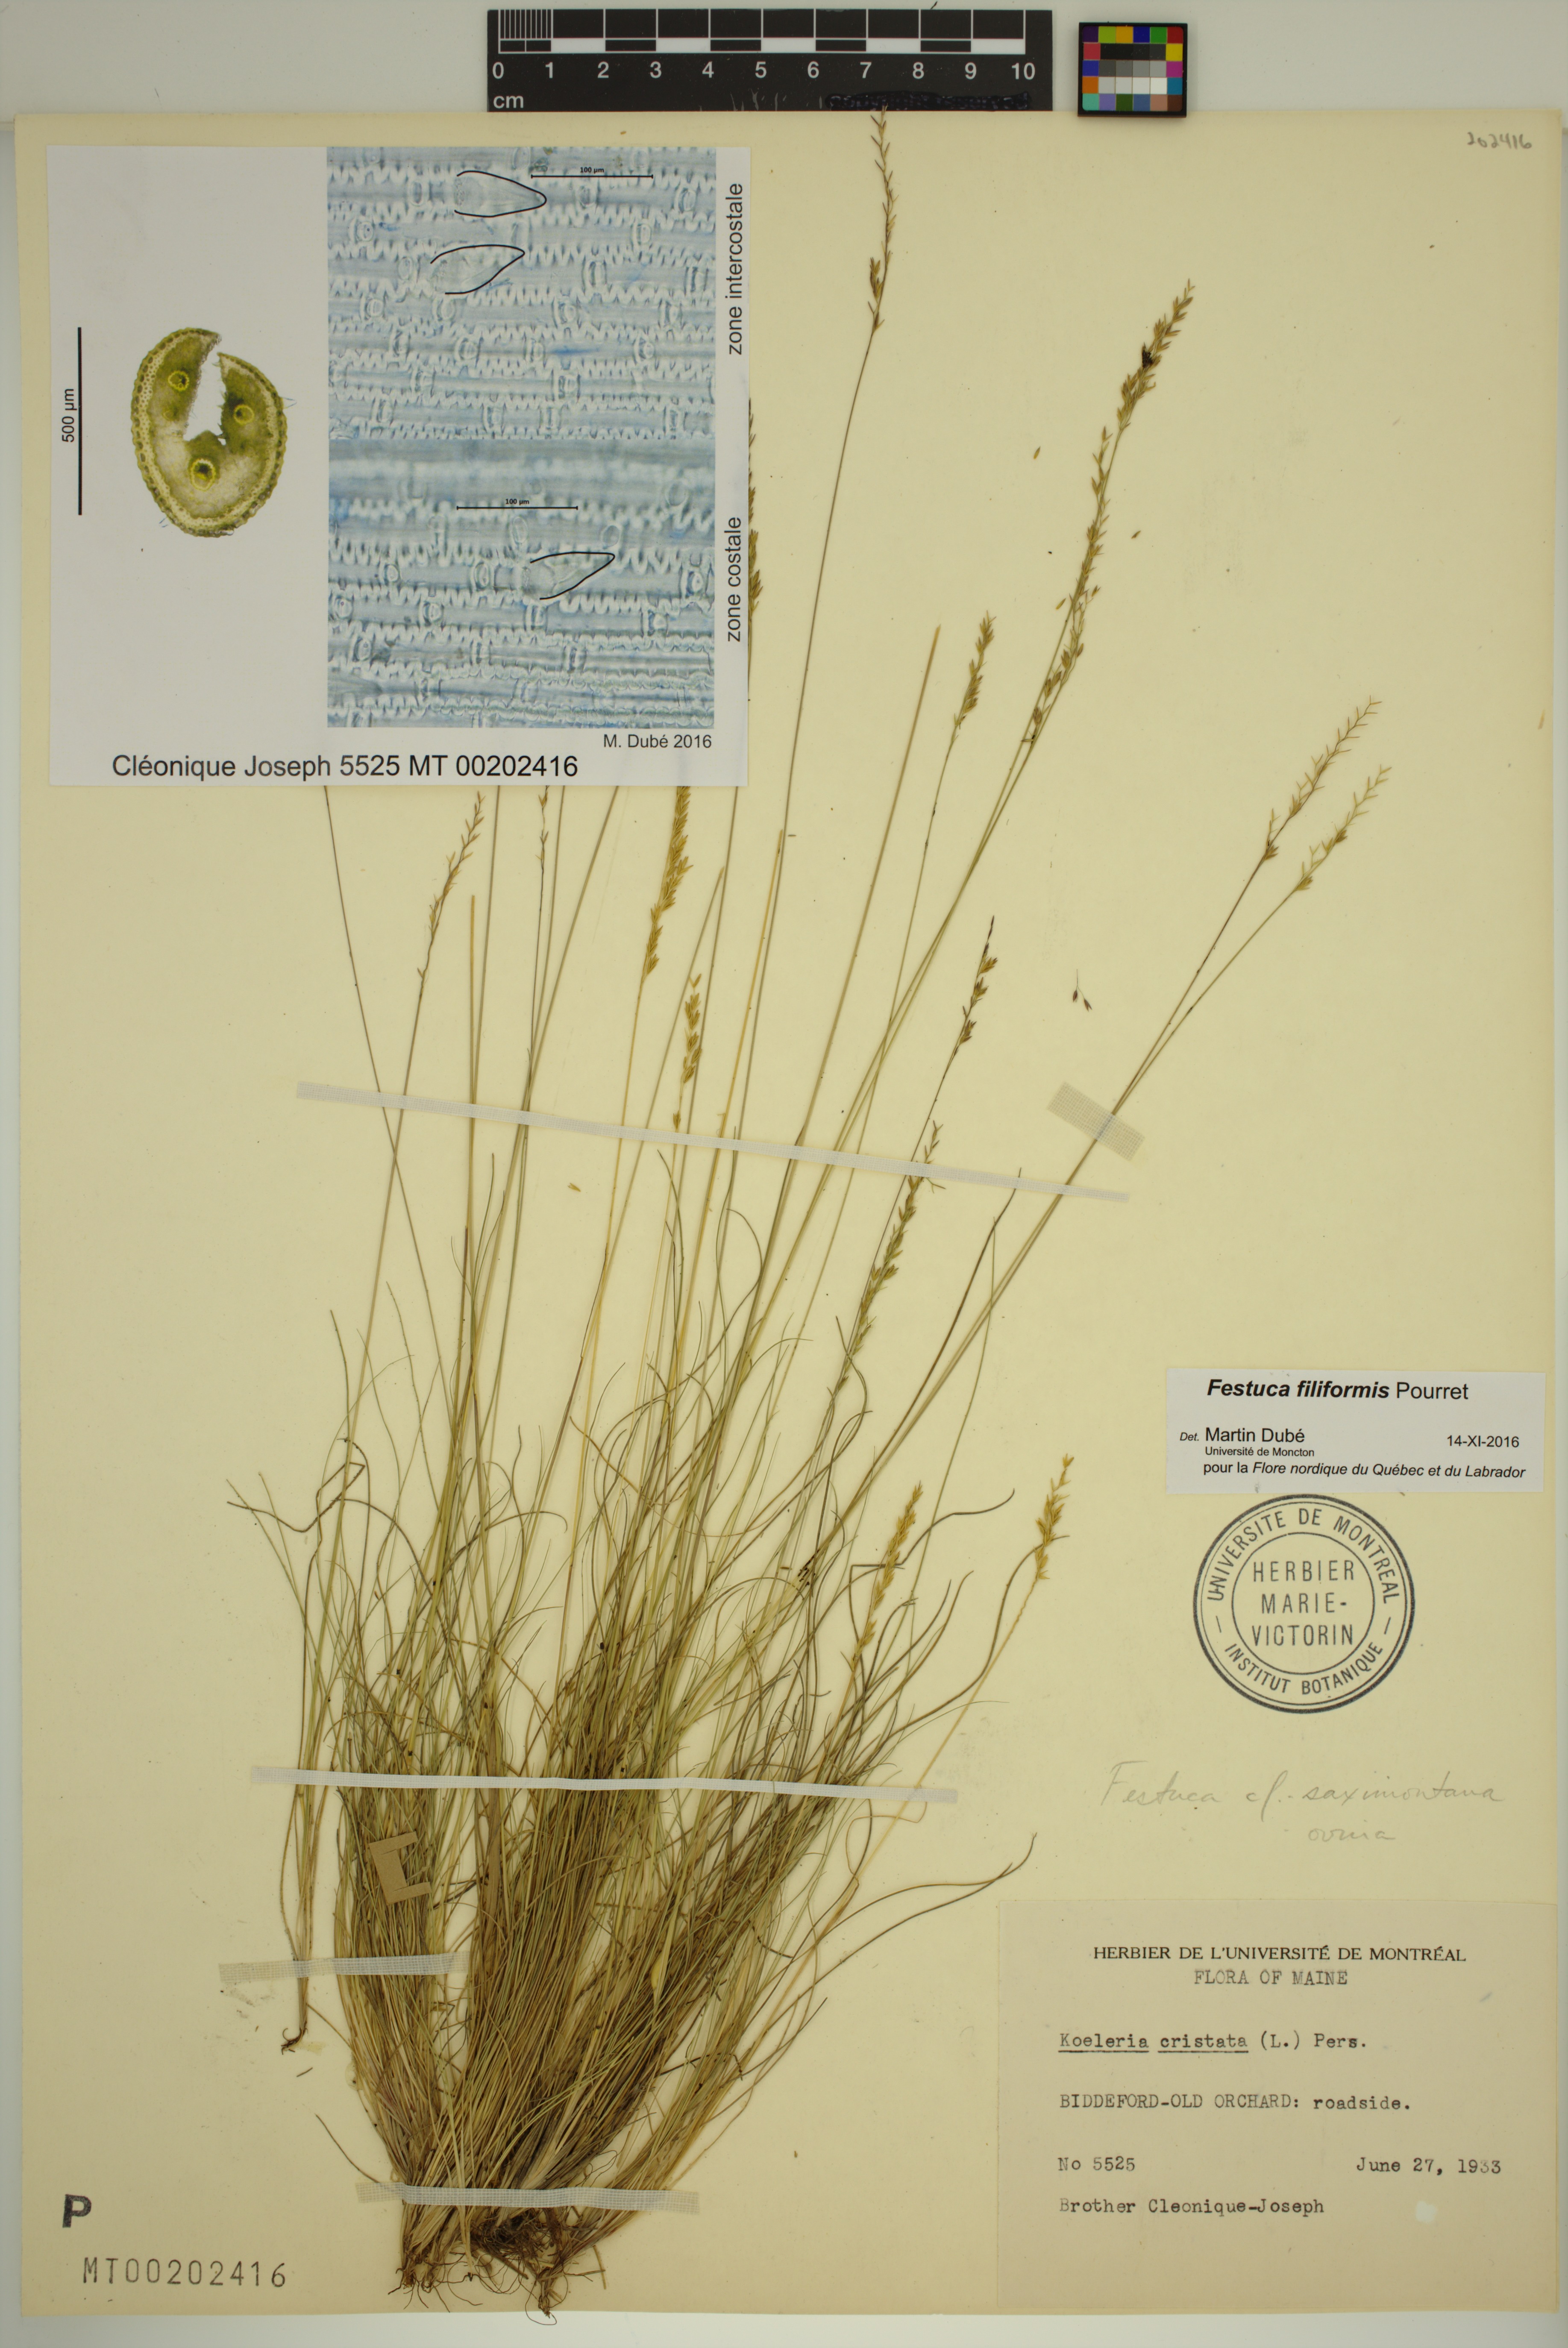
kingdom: Plantae
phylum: Tracheophyta
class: Liliopsida
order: Poales
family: Poaceae
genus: Festuca
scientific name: Festuca filiformis
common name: Fine-leaved sheep's-fescue
